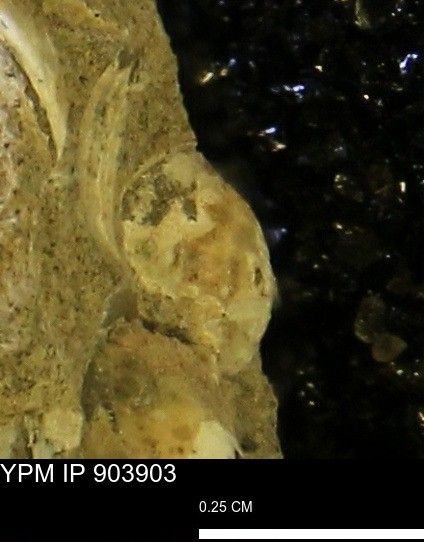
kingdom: Animalia
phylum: Mollusca
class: Bivalvia
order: Myida
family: Corbulidae
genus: Corbulamella
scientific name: Corbulamella
